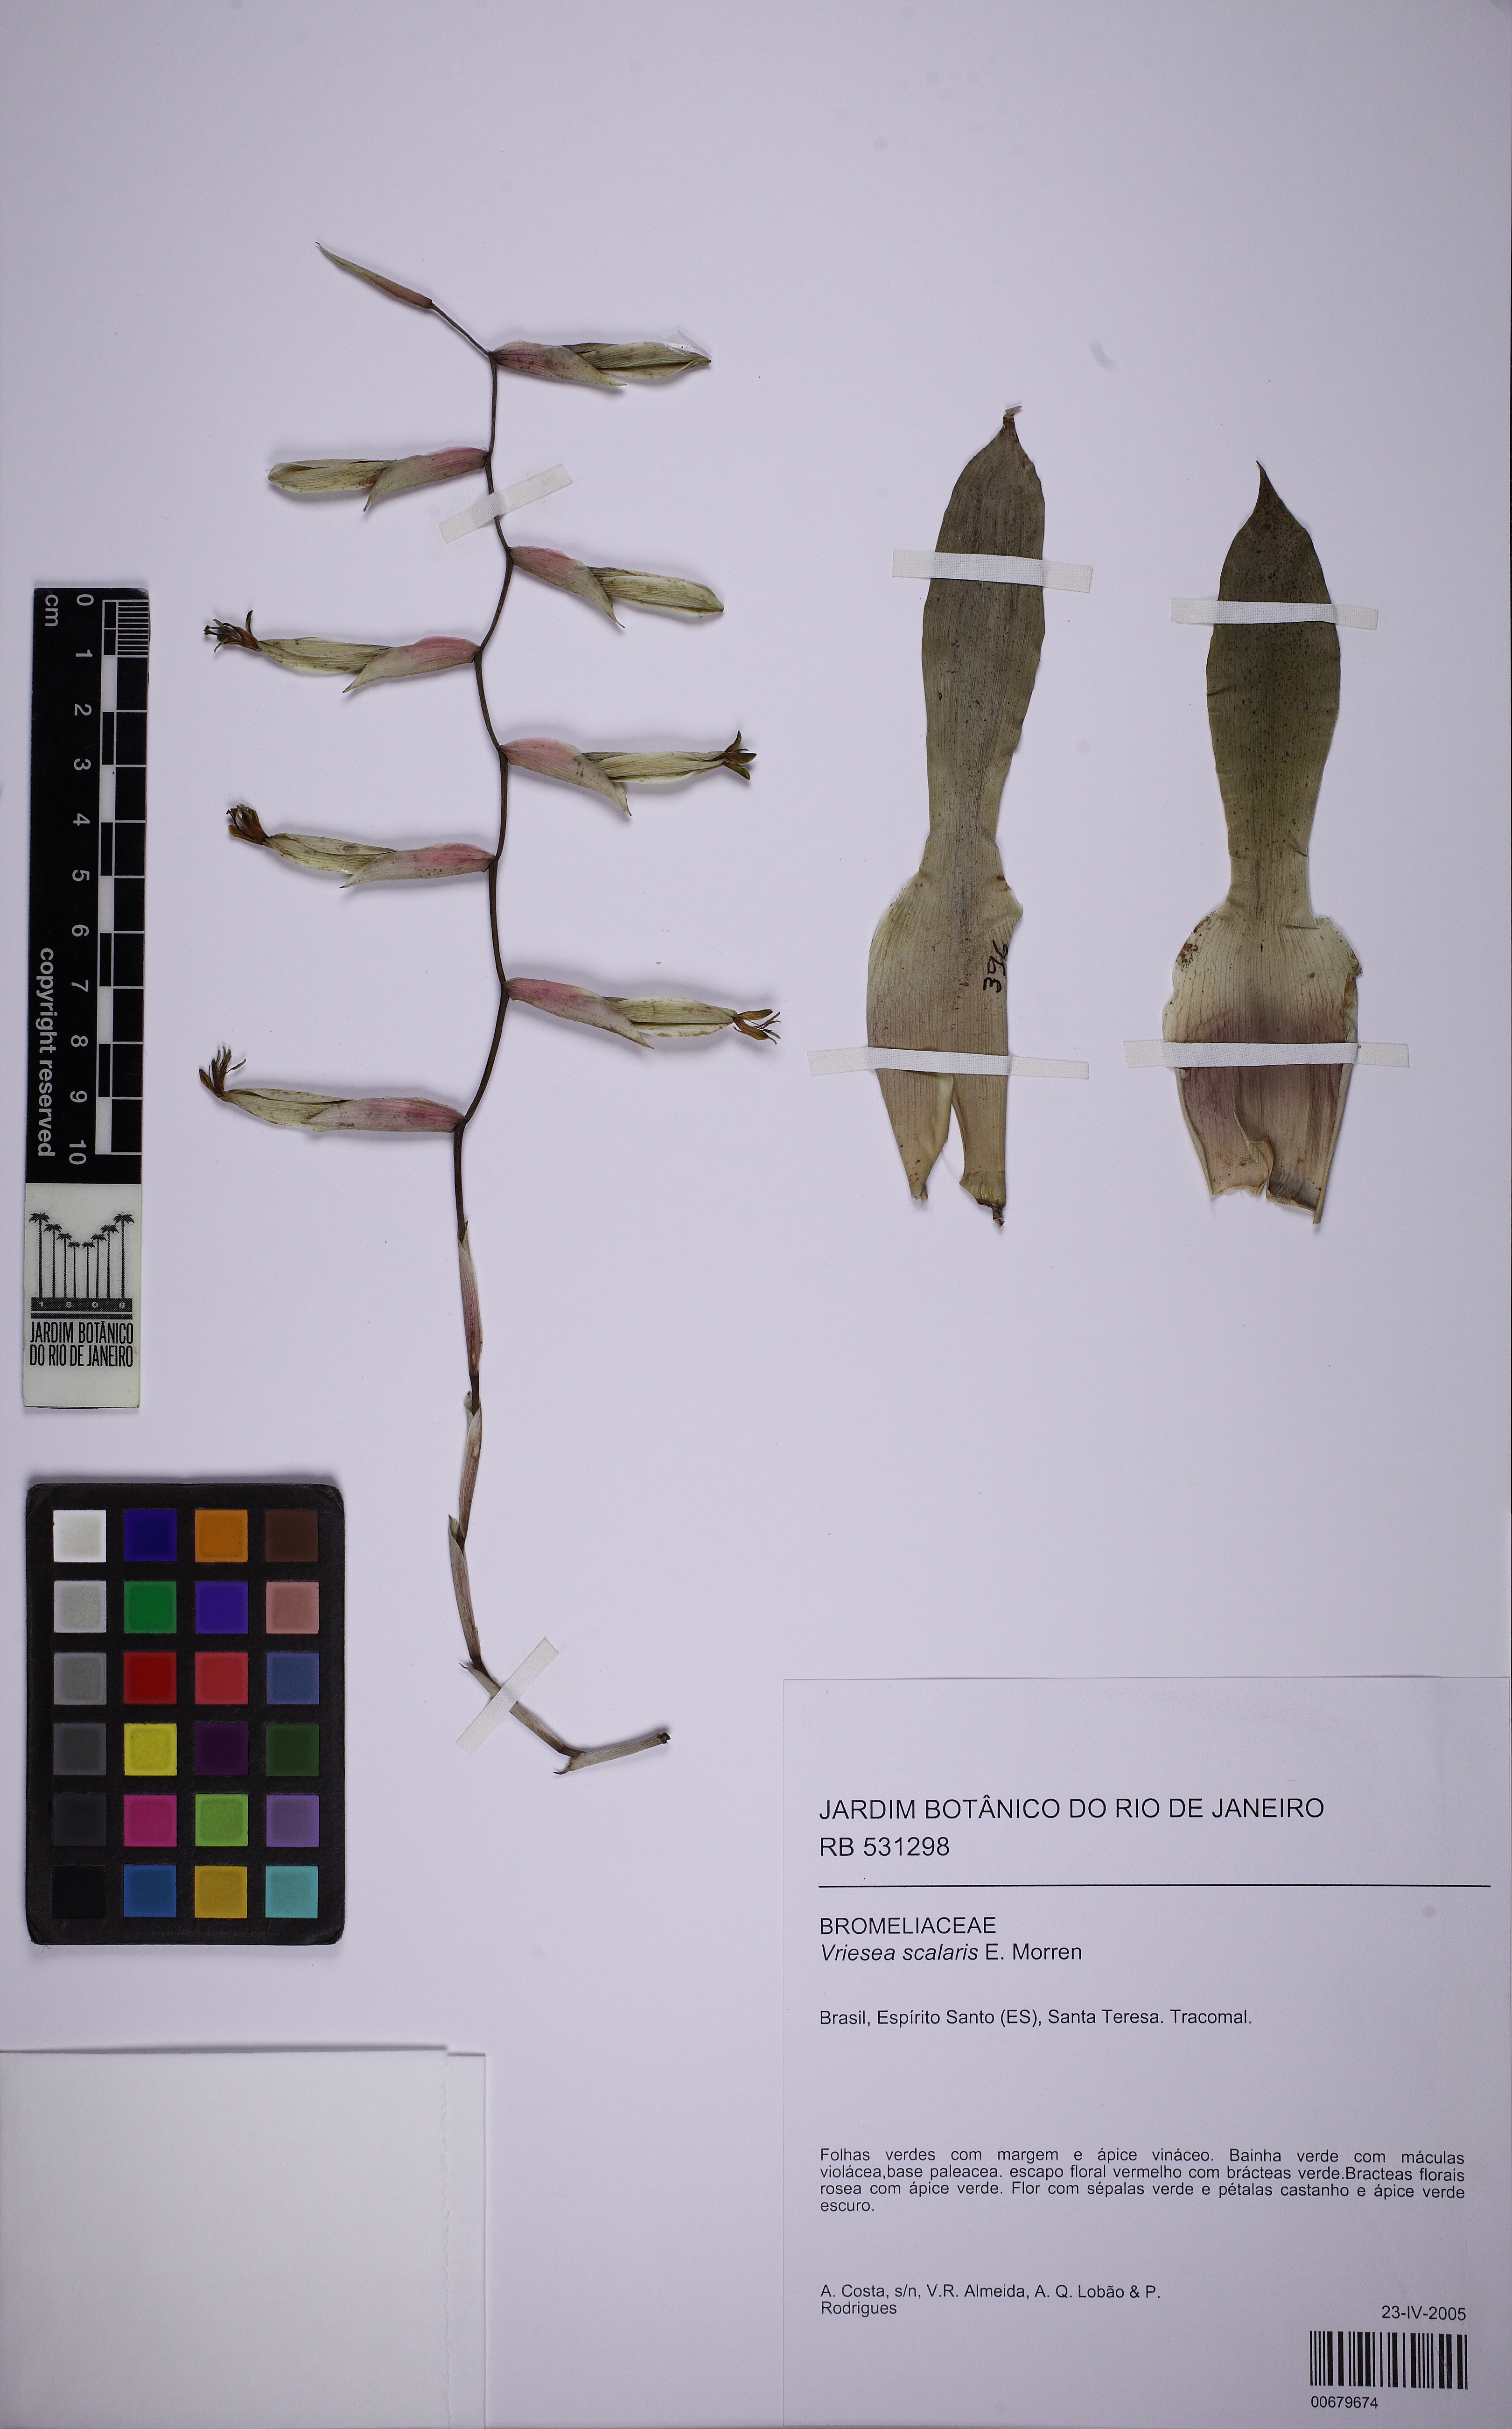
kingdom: Plantae
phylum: Tracheophyta
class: Liliopsida
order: Poales
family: Bromeliaceae
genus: Vriesea
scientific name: Vriesea scalaris
